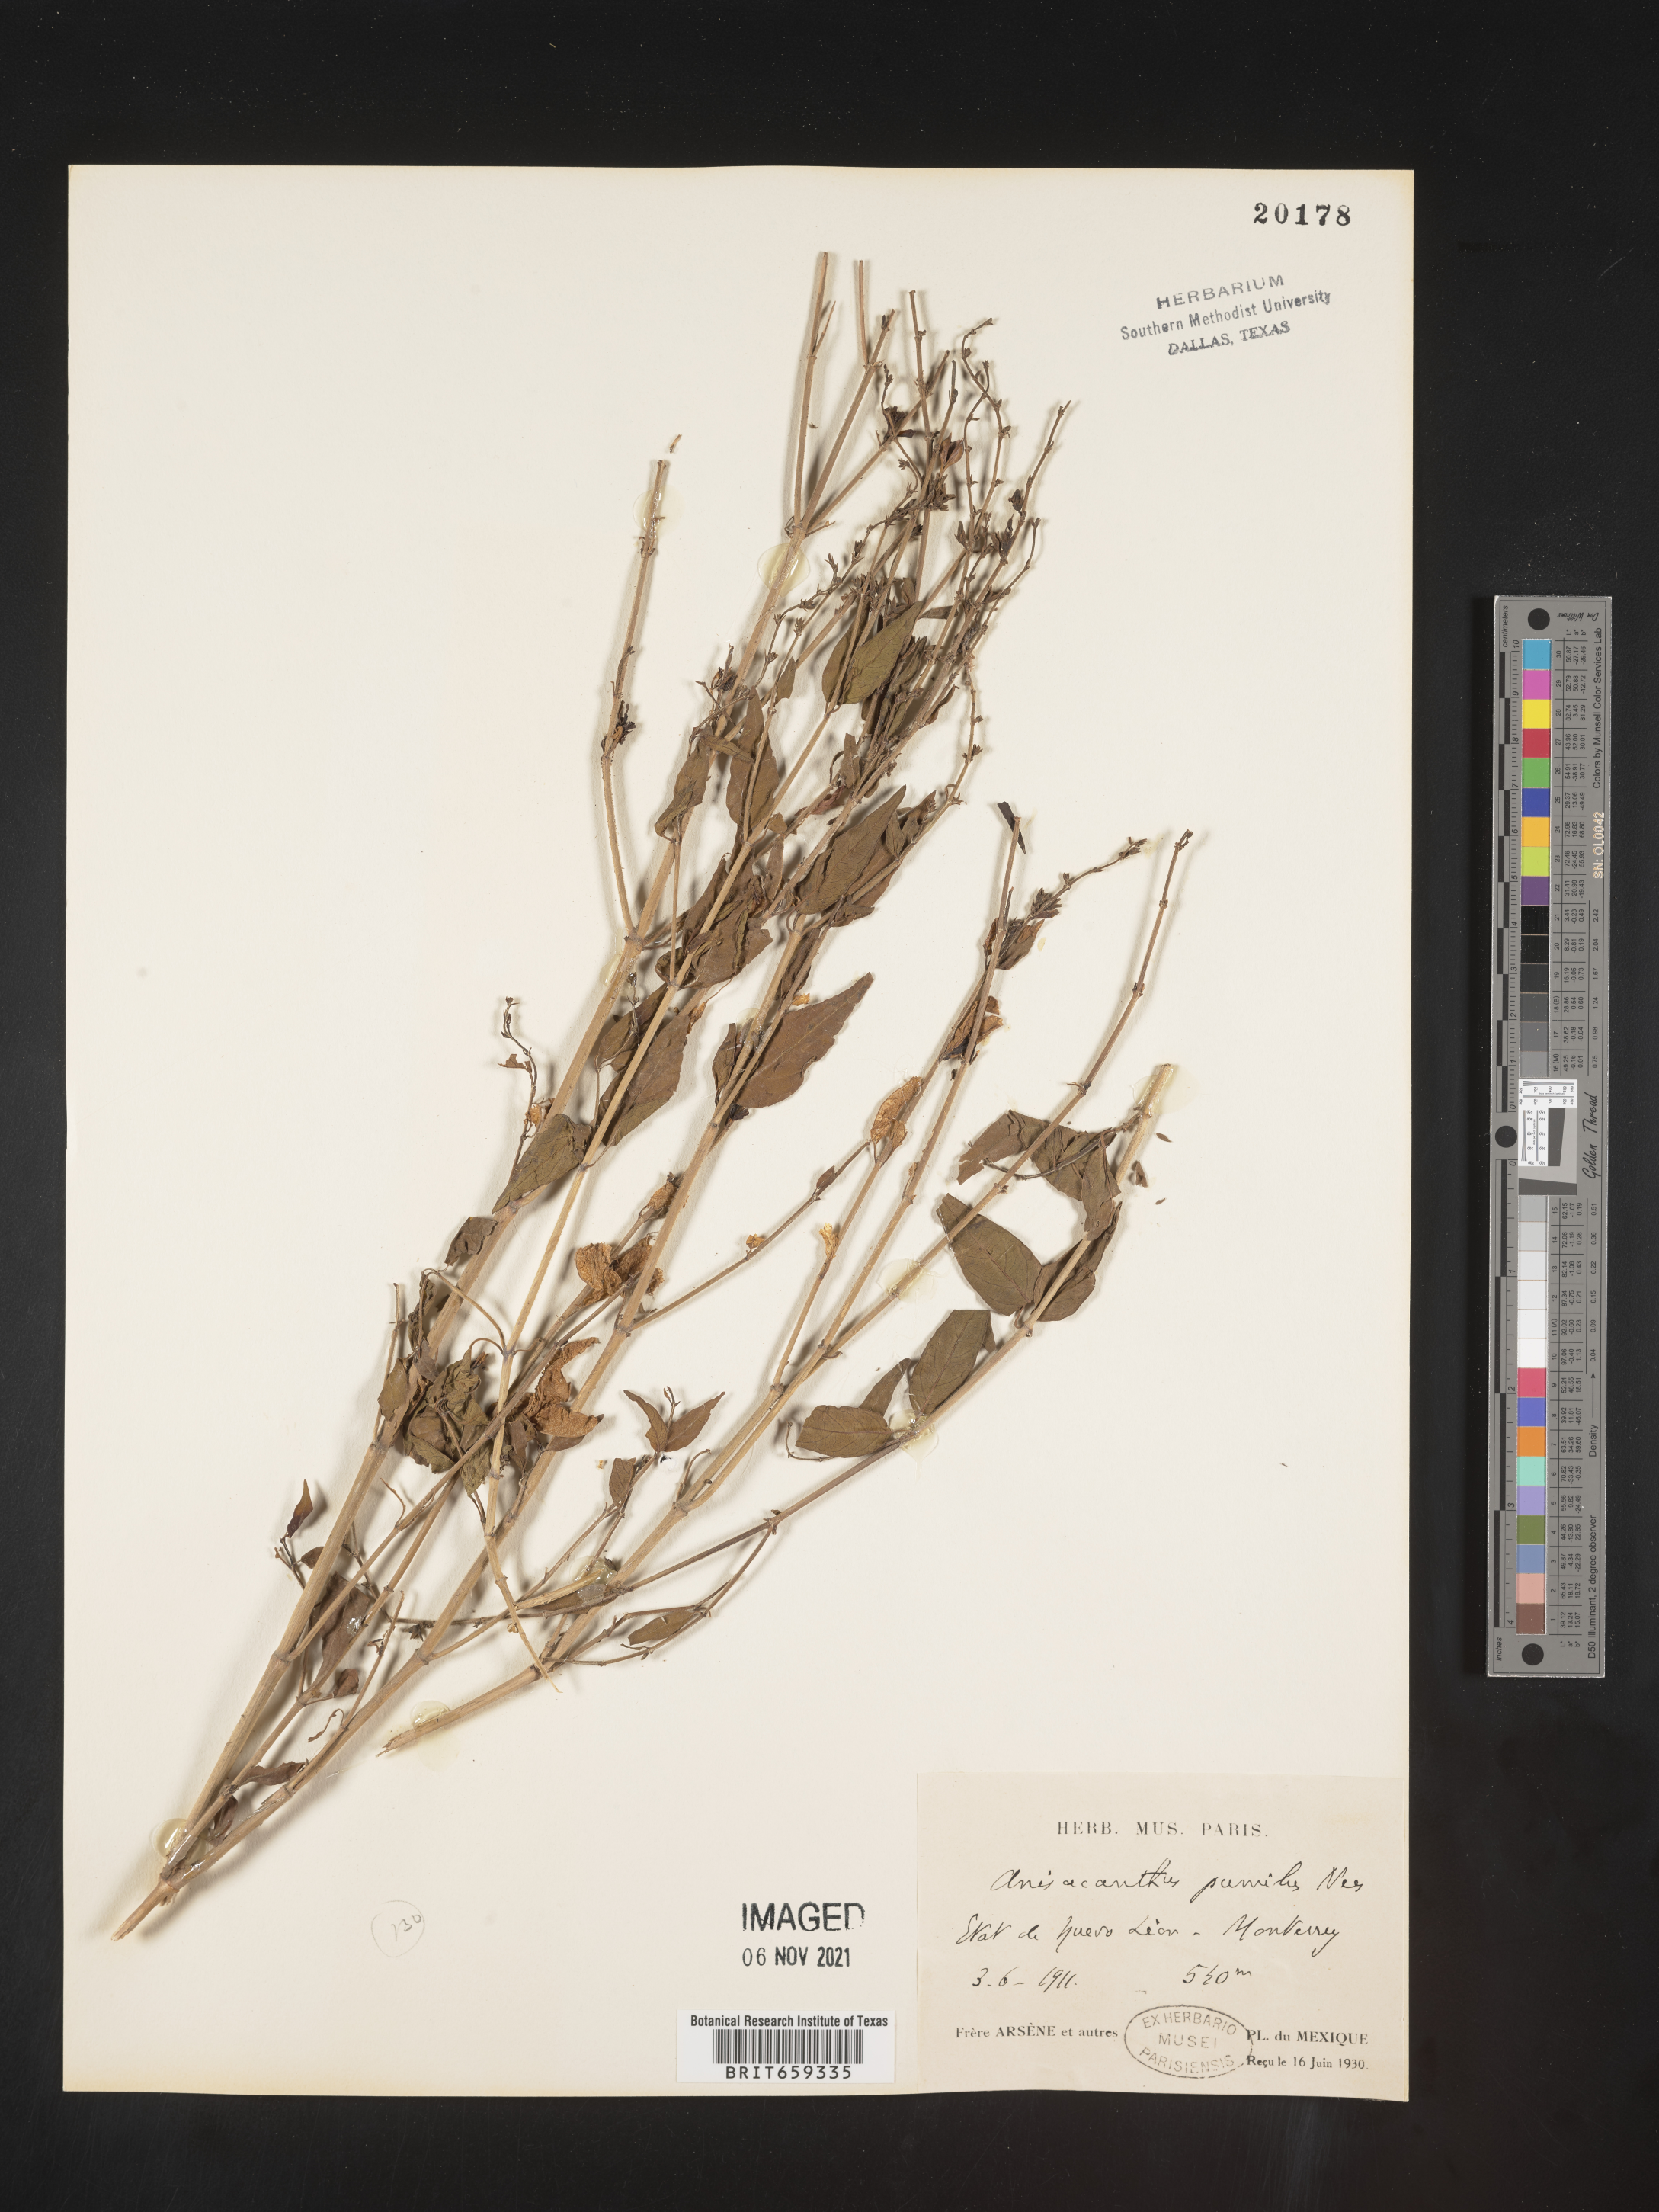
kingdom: Plantae
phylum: Tracheophyta
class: Magnoliopsida
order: Lamiales
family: Acanthaceae
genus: Anisacanthus
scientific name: Anisacanthus
